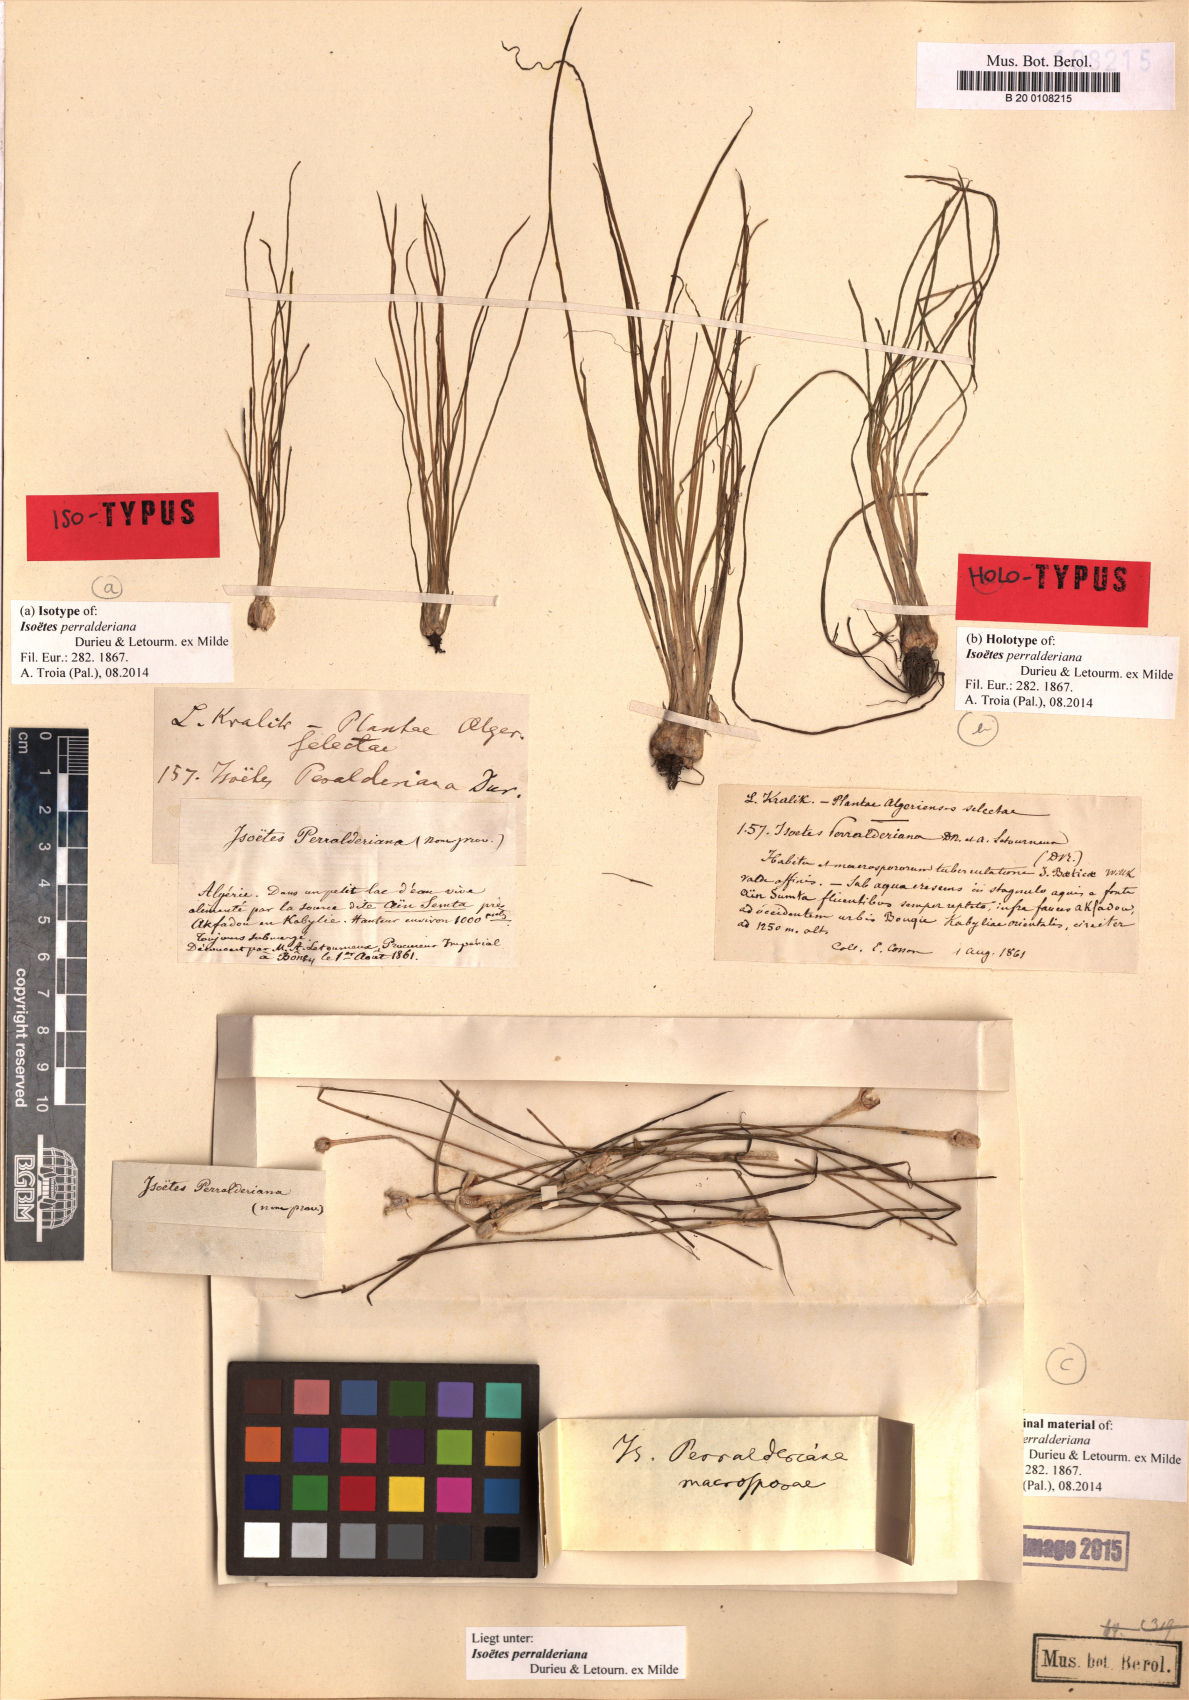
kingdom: Plantae
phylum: Tracheophyta
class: Lycopodiopsida
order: Isoetales
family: Isoetaceae
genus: Isoetes
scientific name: Isoetes longissima
